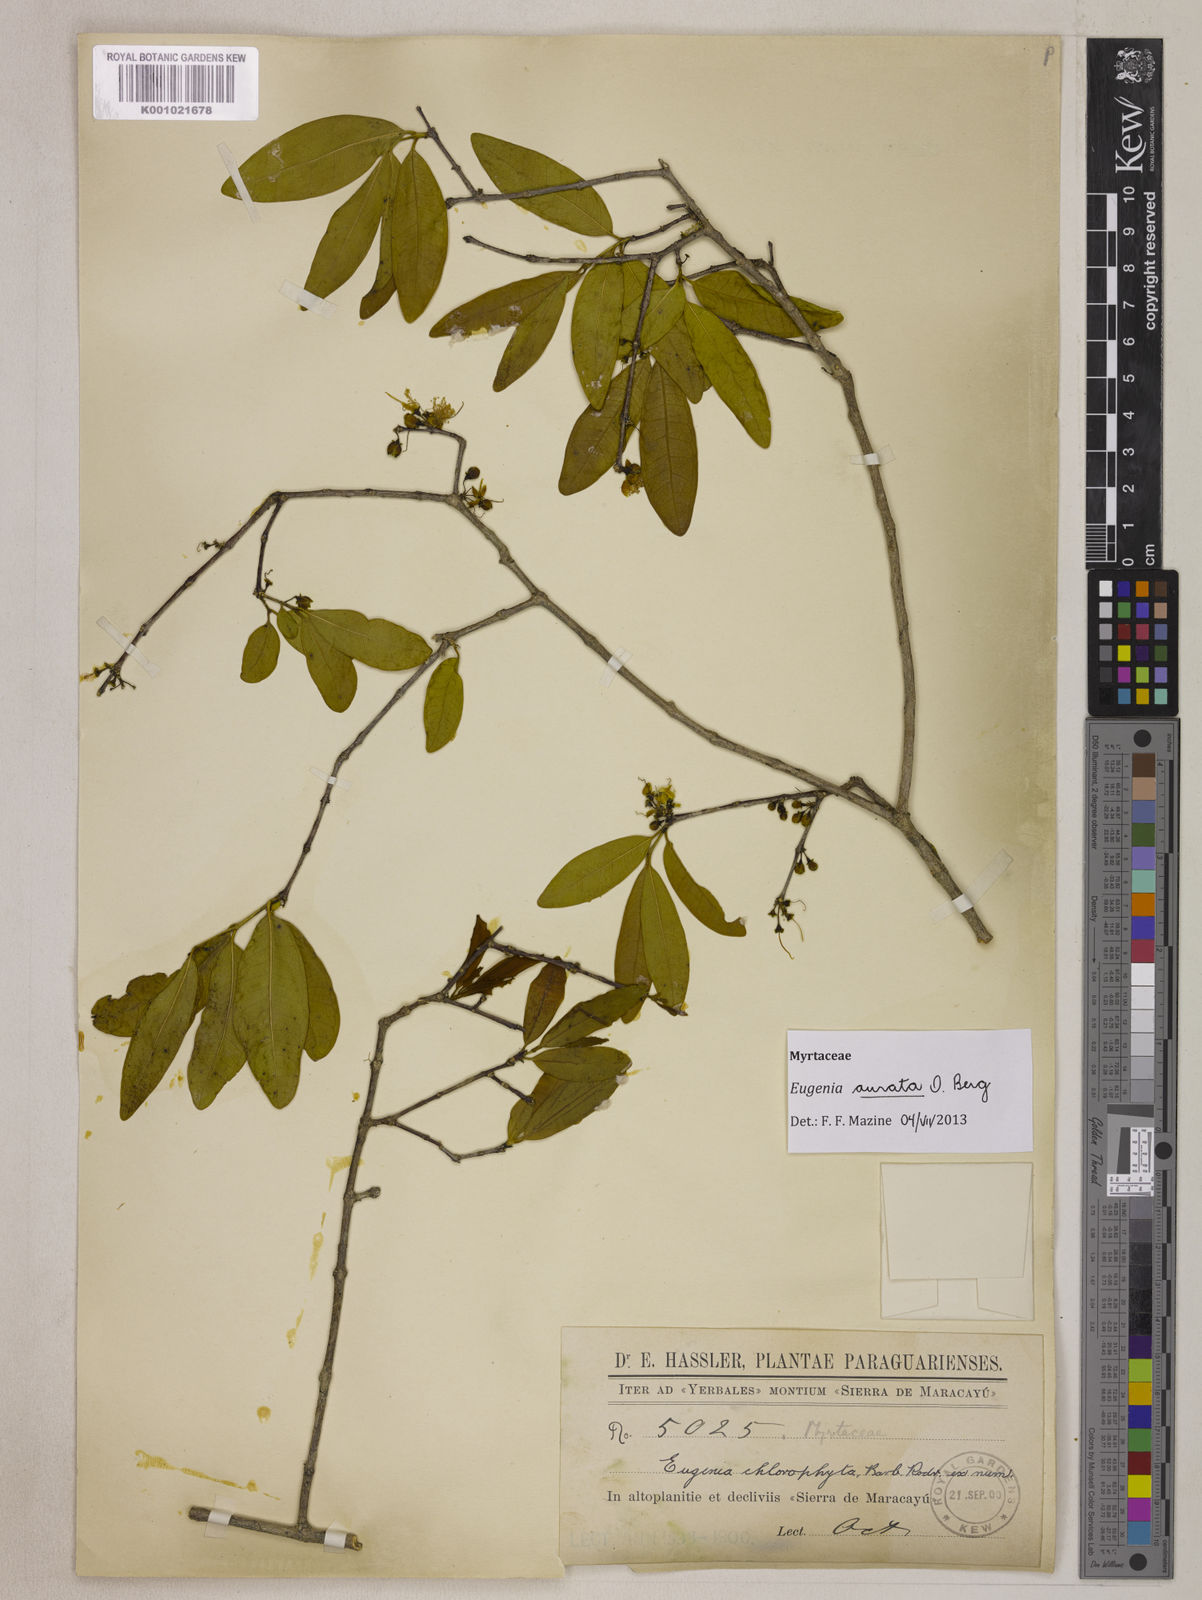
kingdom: Plantae
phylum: Tracheophyta
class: Magnoliopsida
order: Myrtales
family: Myrtaceae
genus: Eugenia
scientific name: Eugenia aurata
